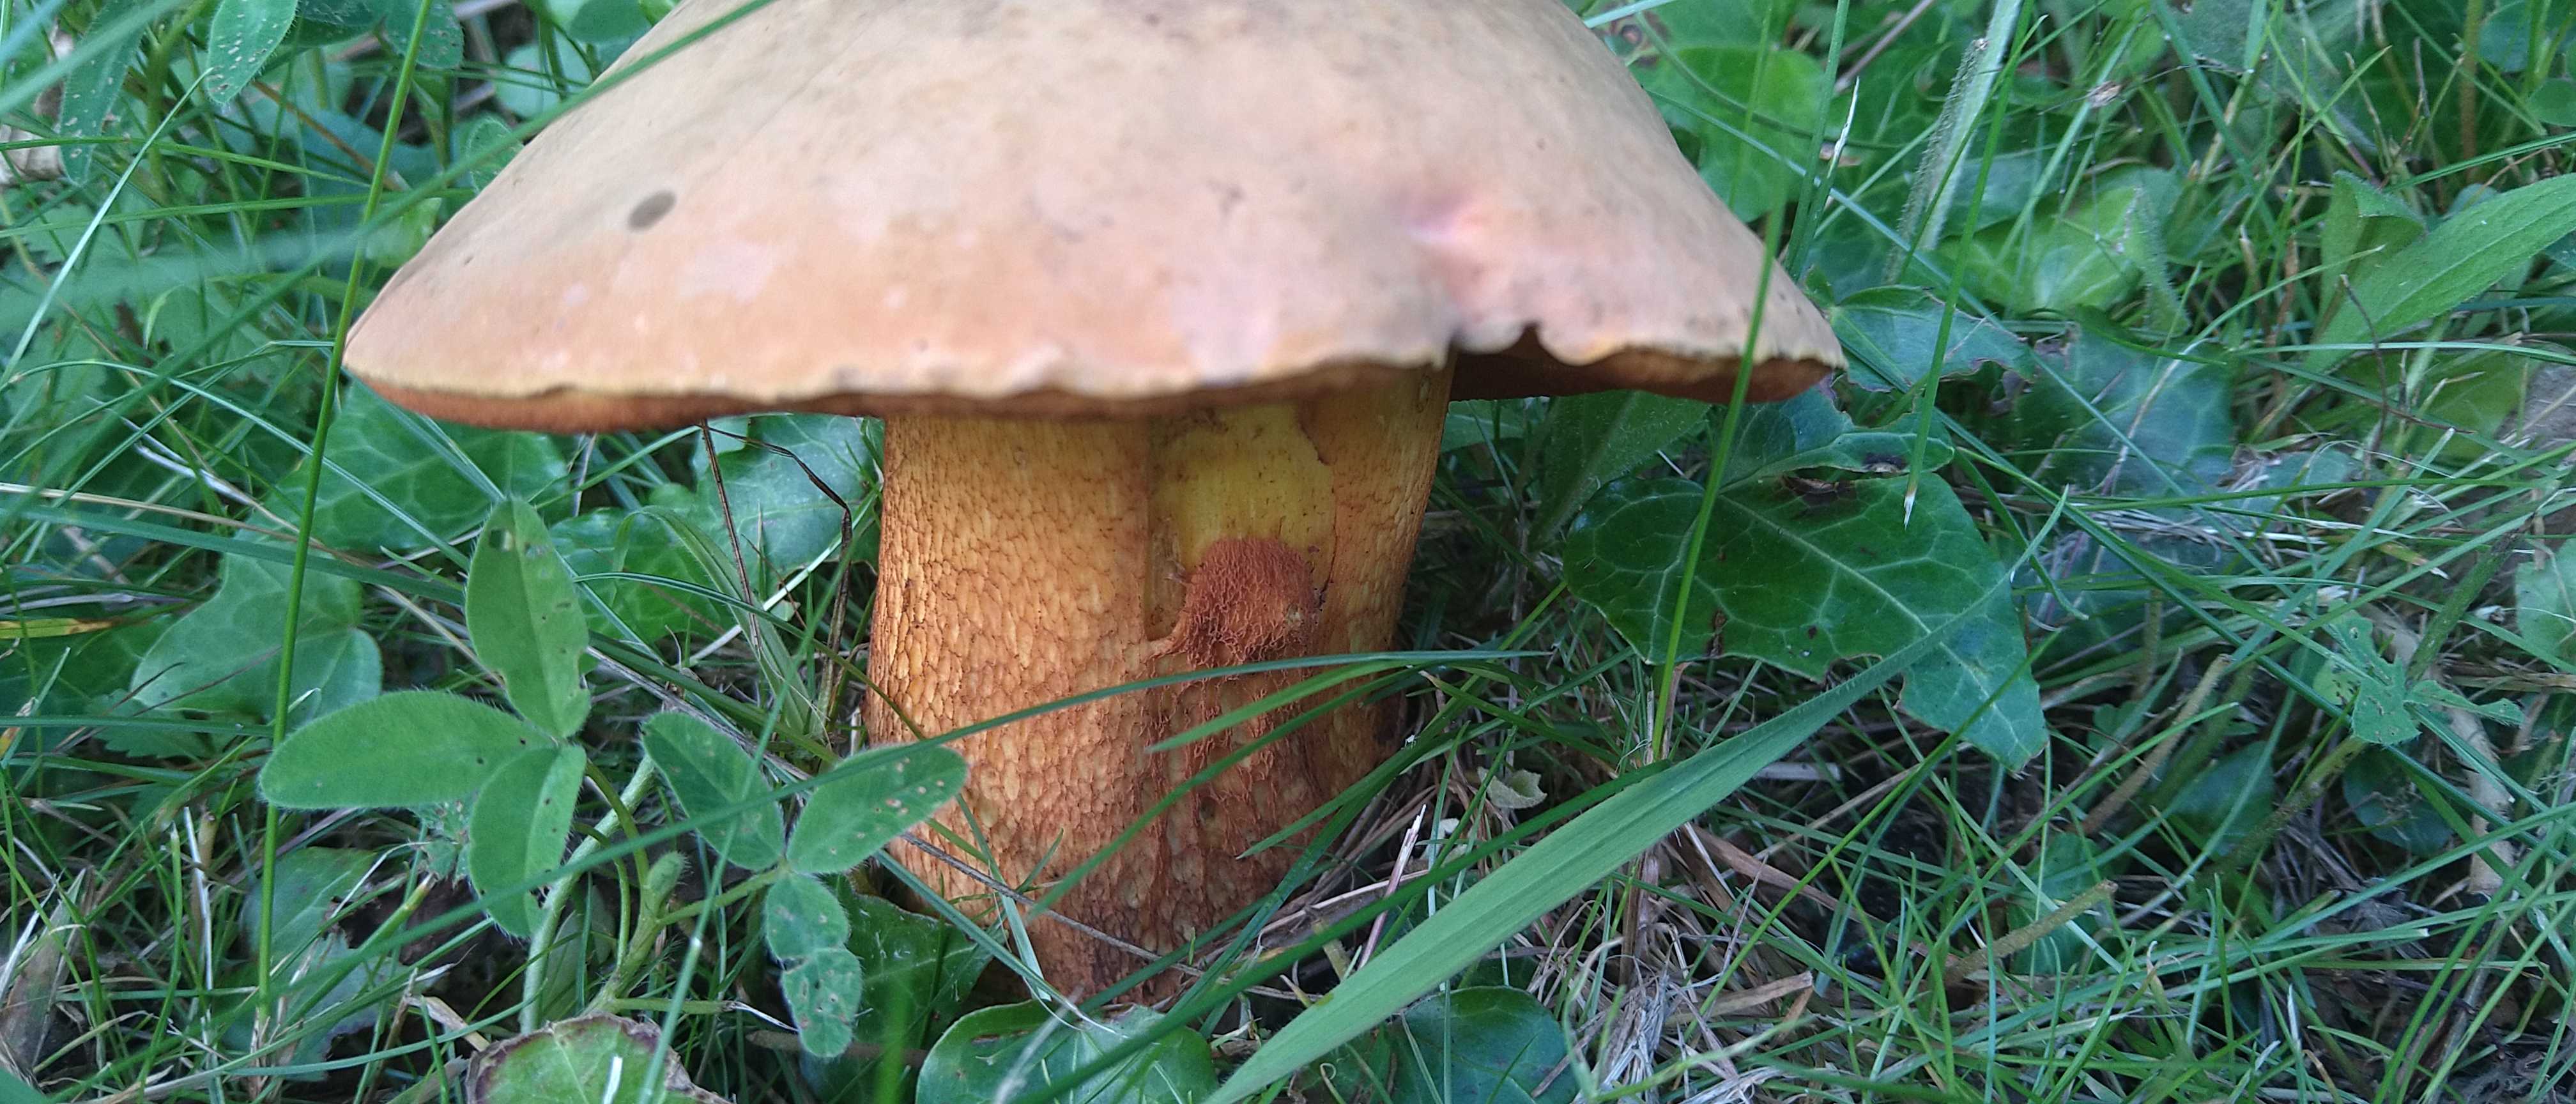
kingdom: Fungi
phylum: Basidiomycota
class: Agaricomycetes
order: Boletales
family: Boletaceae
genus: Suillellus
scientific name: Suillellus luridus
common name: netstokket indigorørhat
